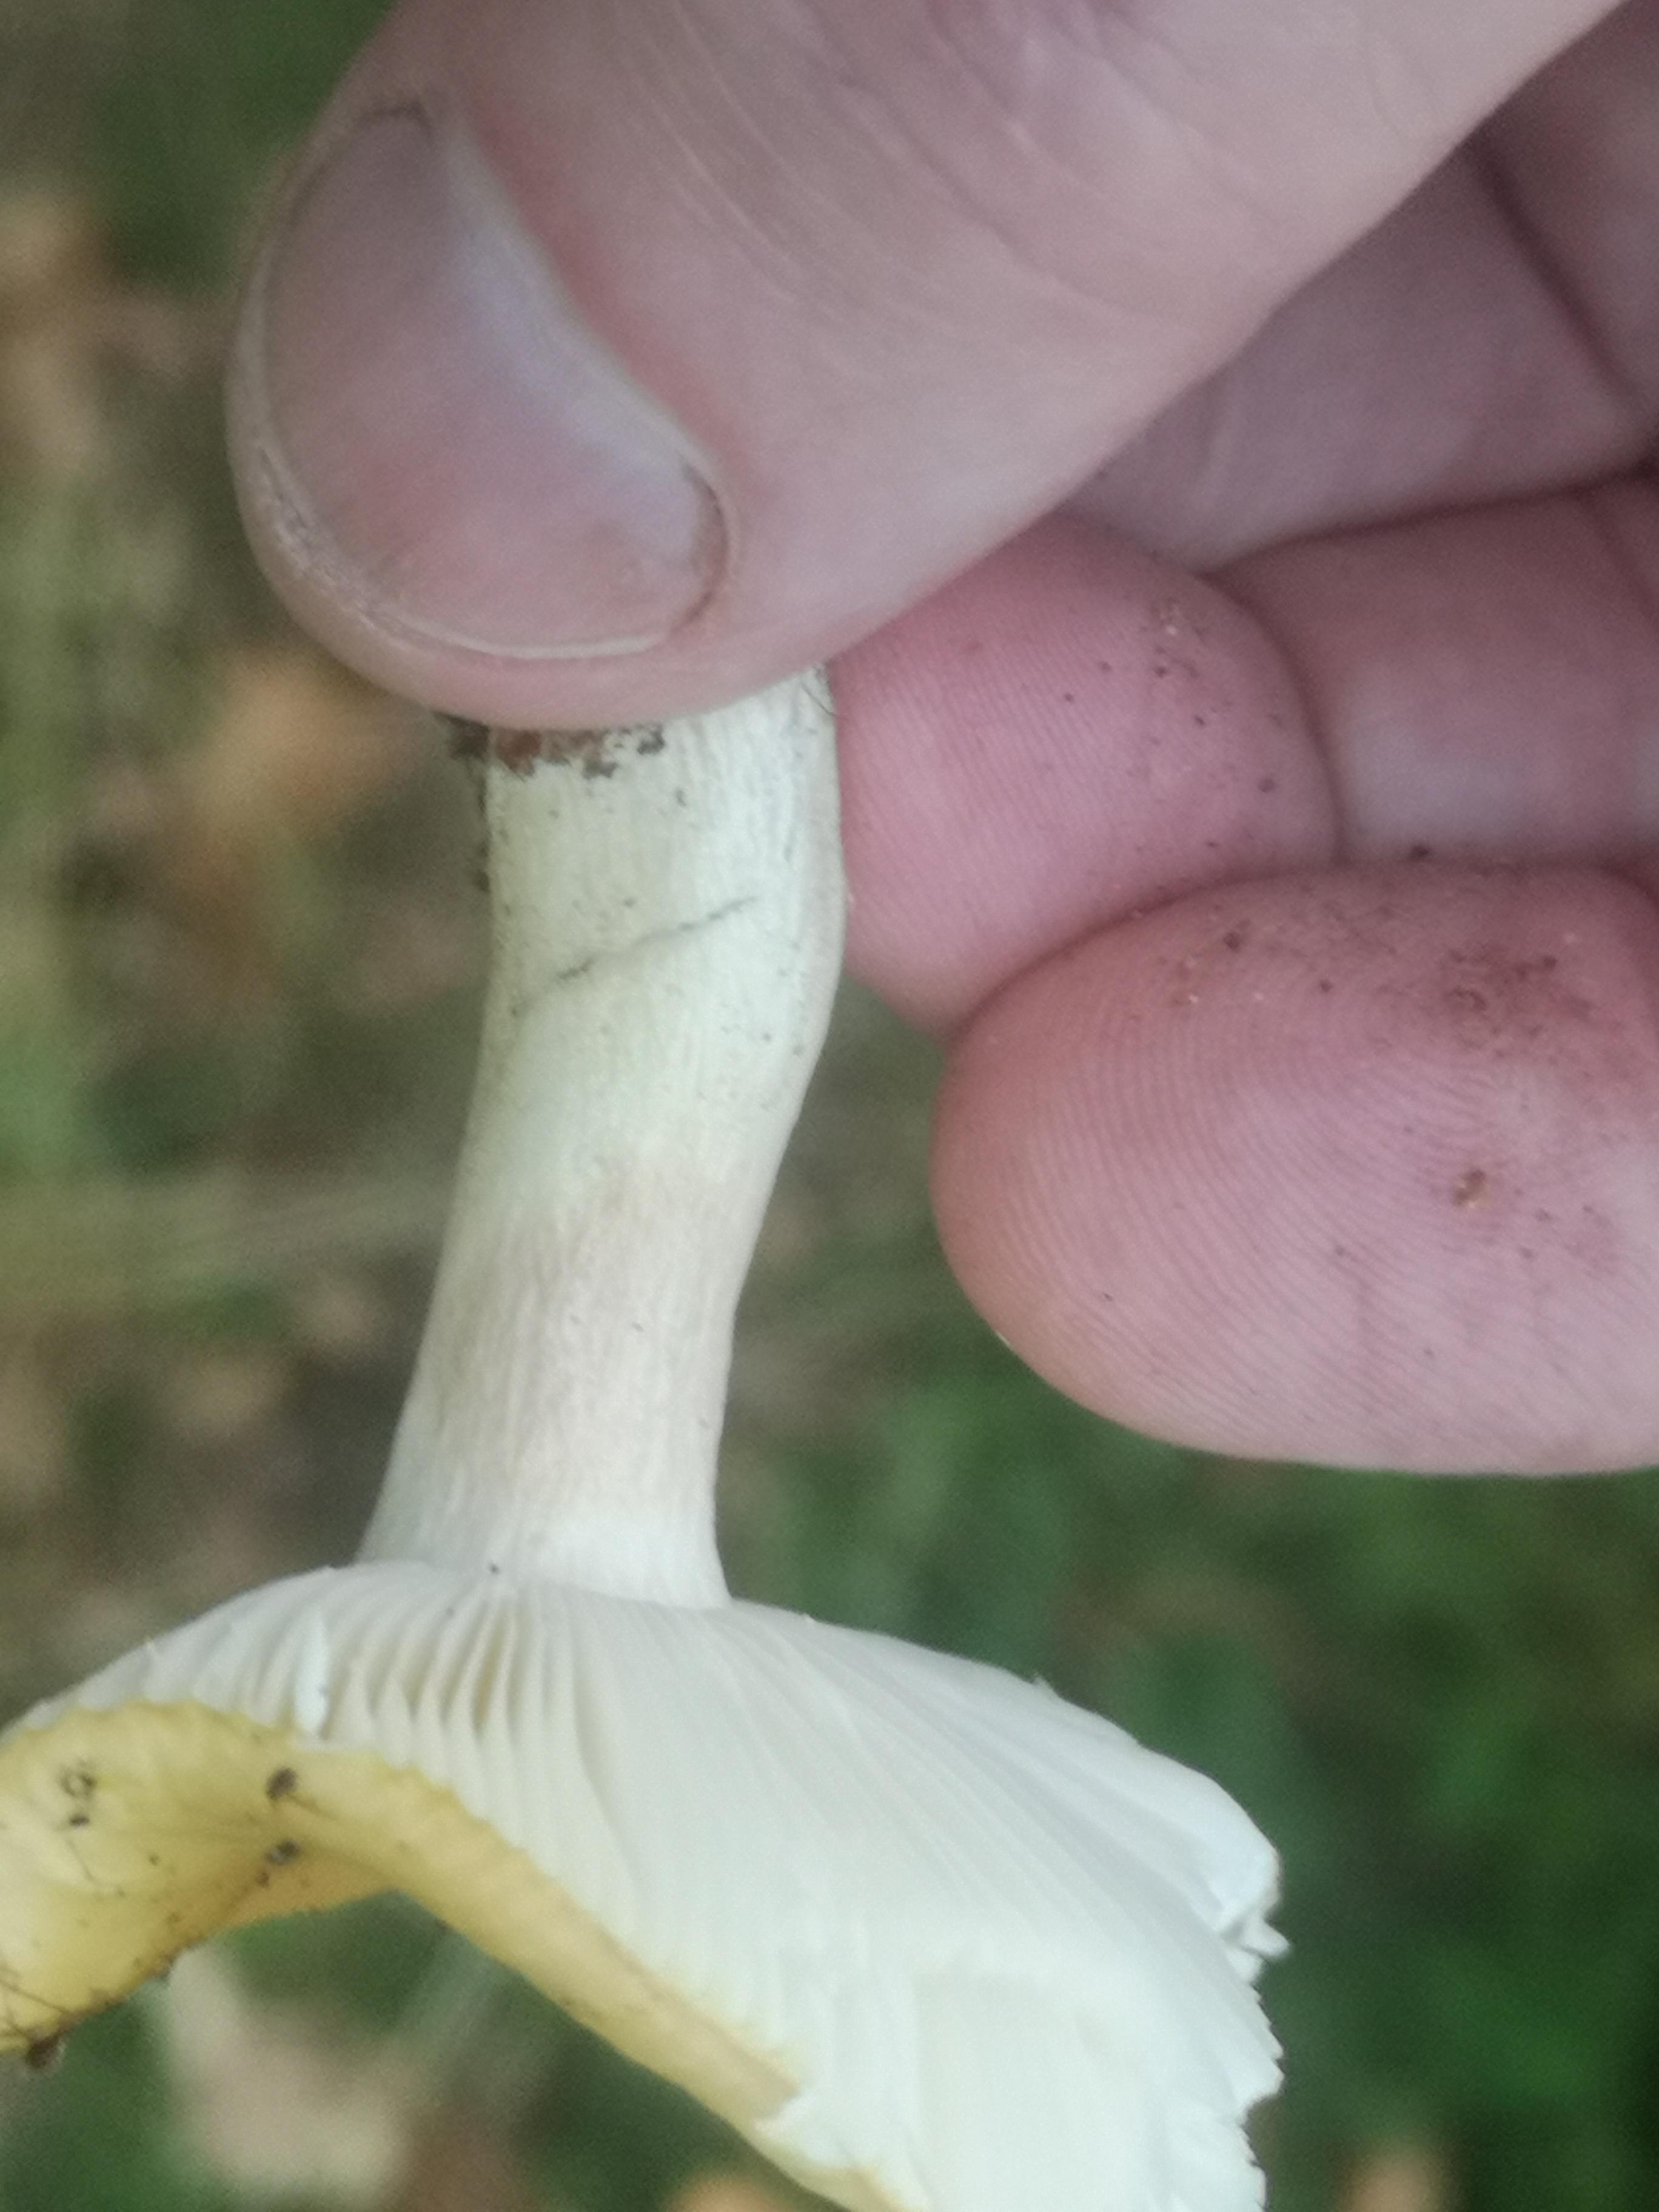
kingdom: Fungi
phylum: Basidiomycota
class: Agaricomycetes
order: Russulales
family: Russulaceae
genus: Russula
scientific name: Russula ochroleuca
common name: okkergul skørhat
